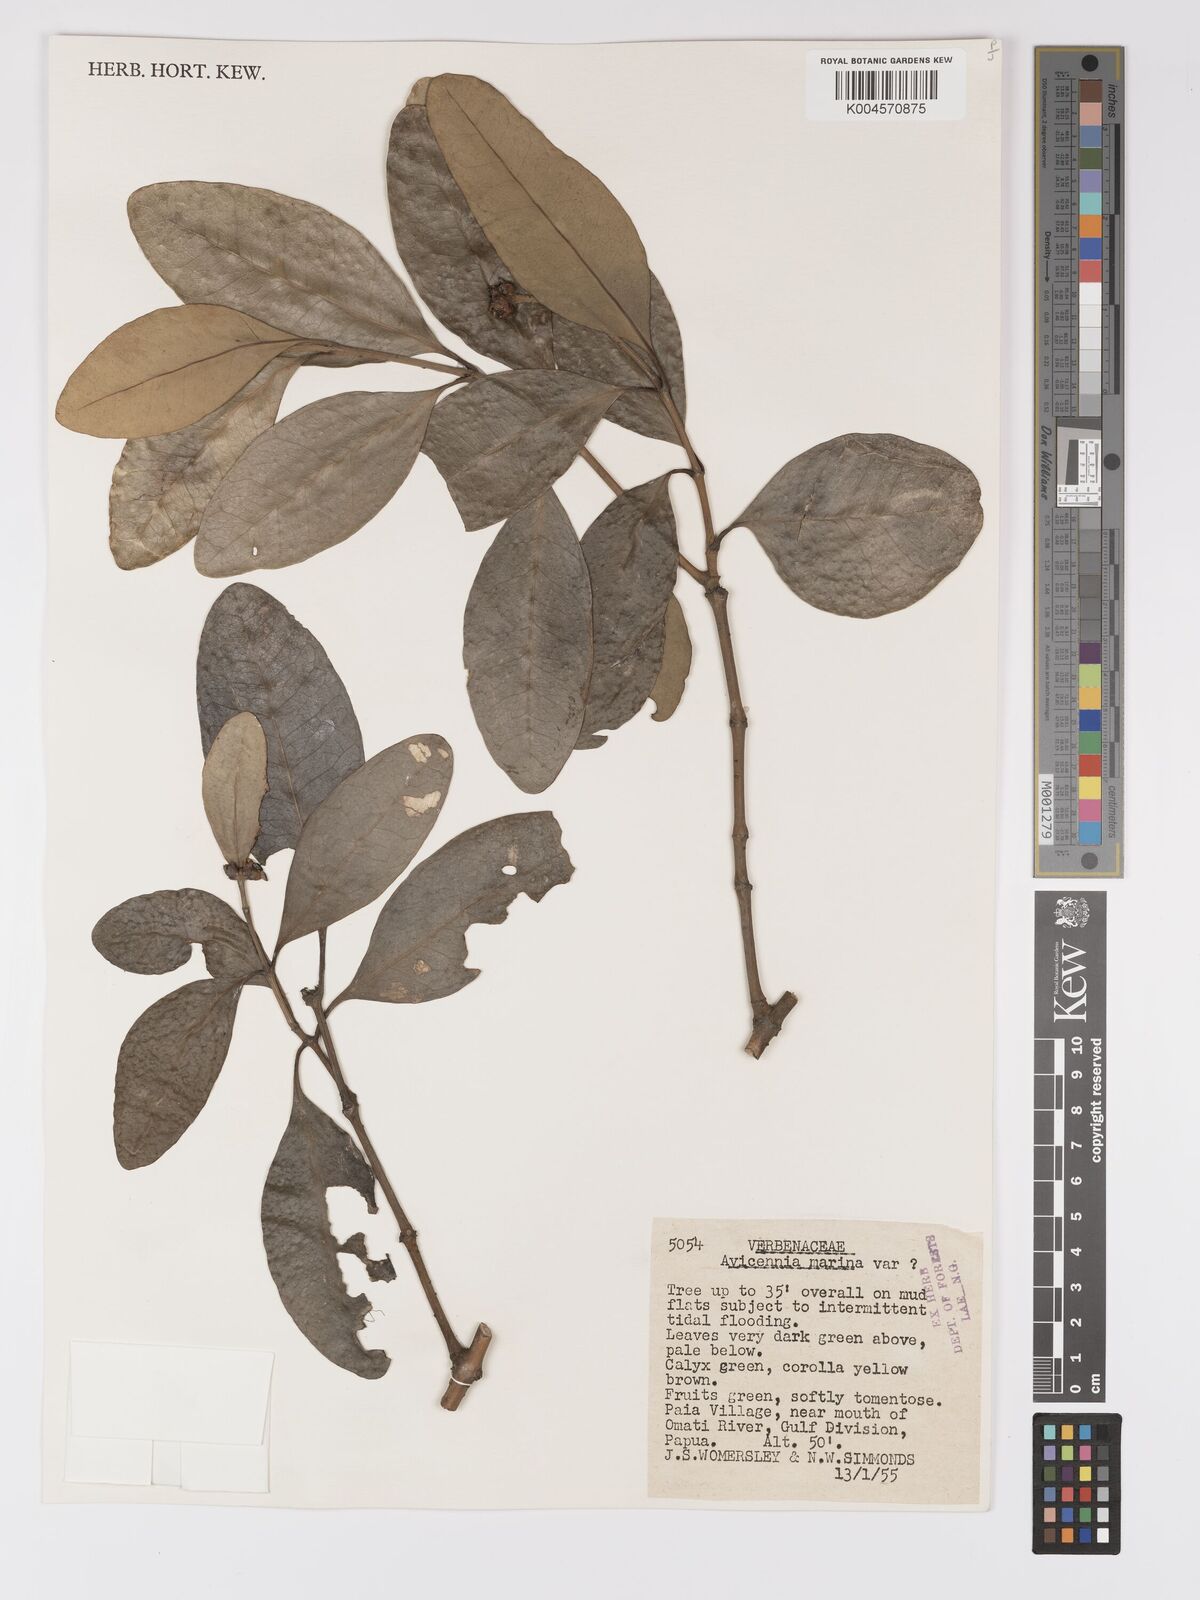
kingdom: Plantae
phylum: Tracheophyta
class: Magnoliopsida
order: Lamiales
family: Acanthaceae
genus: Avicennia
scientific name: Avicennia marina
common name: Gray mangrove
